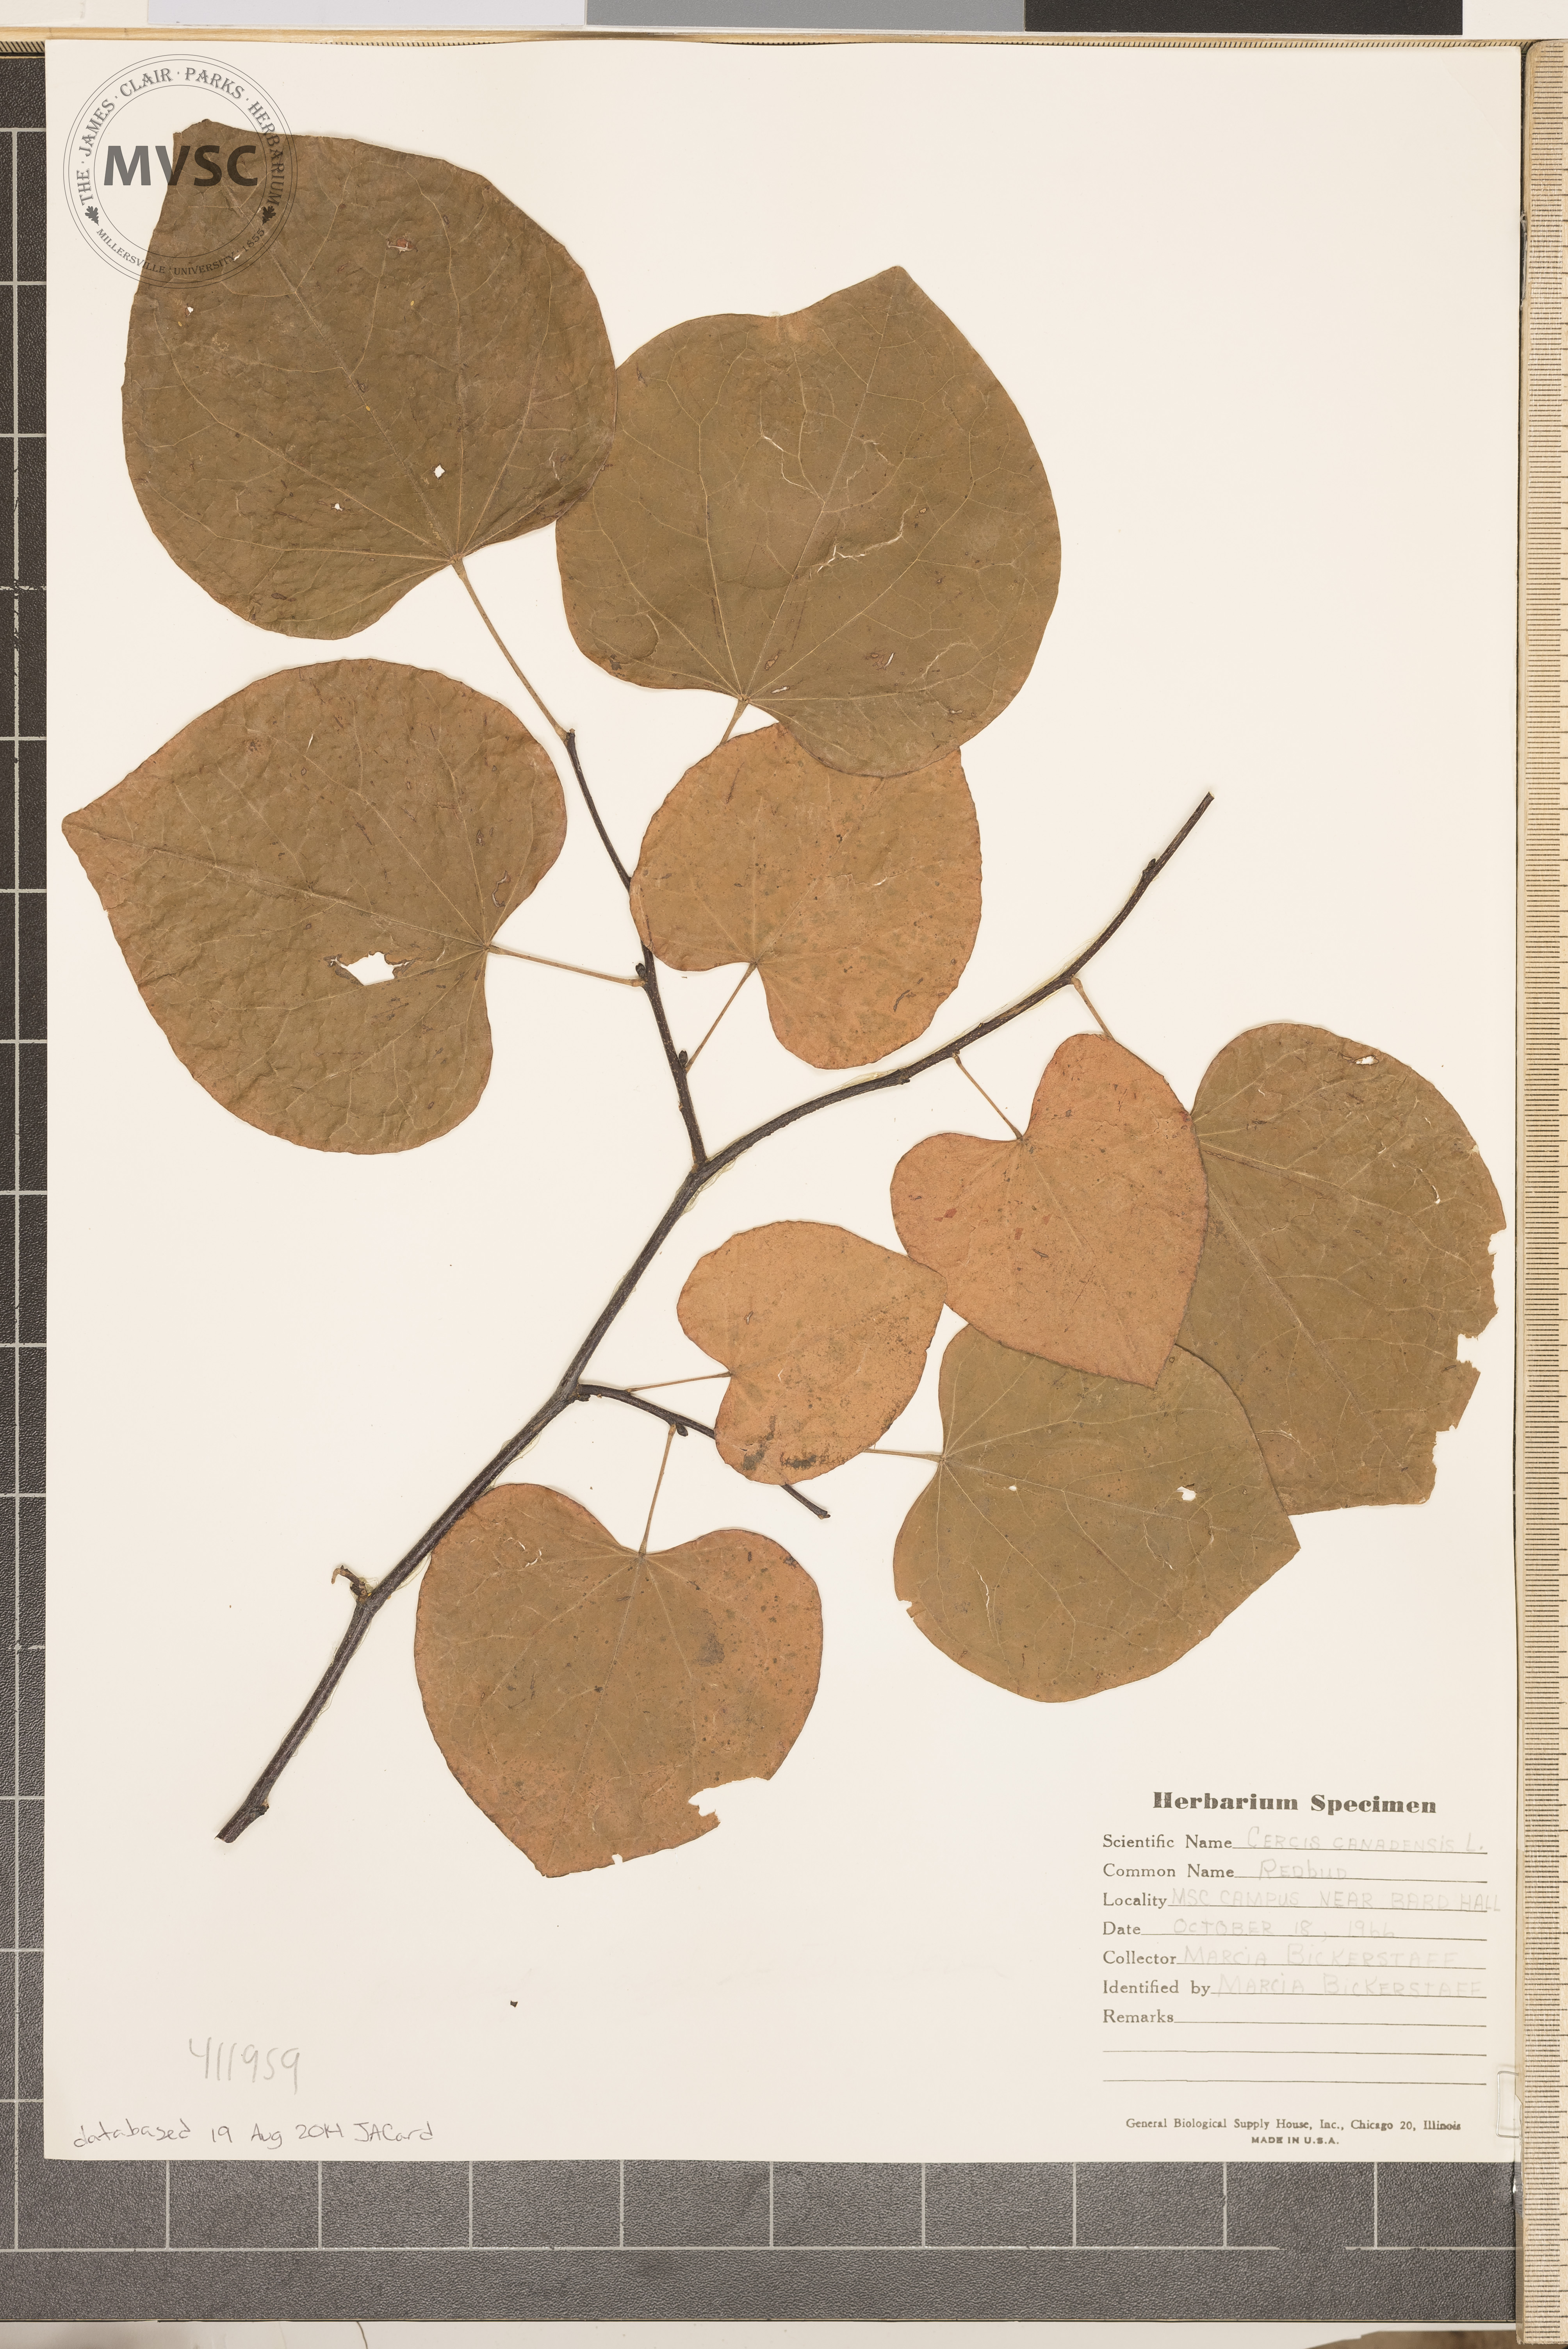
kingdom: Plantae
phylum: Tracheophyta
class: Magnoliopsida
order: Fabales
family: Fabaceae
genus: Cercis
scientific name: Cercis canadensis
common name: Redbud
